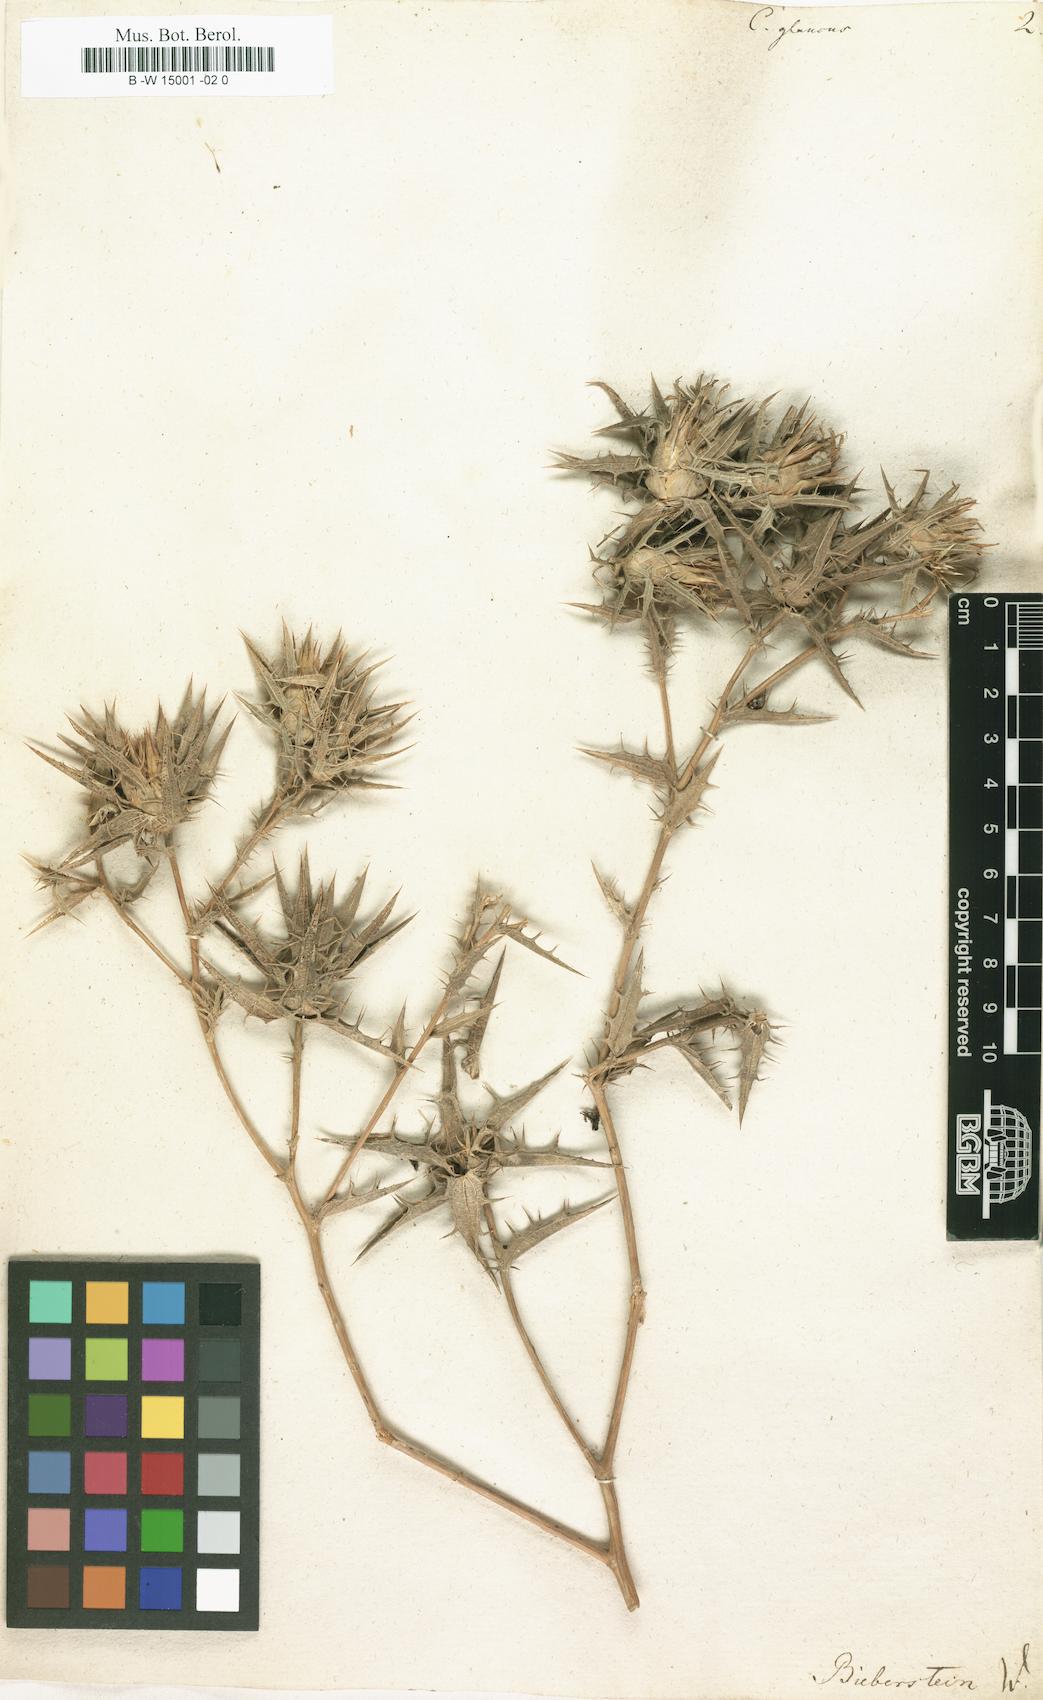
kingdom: Plantae
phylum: Tracheophyta
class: Magnoliopsida
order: Asterales
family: Asteraceae
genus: Carthamus
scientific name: Carthamus glaucus
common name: Mediterranean thistle
